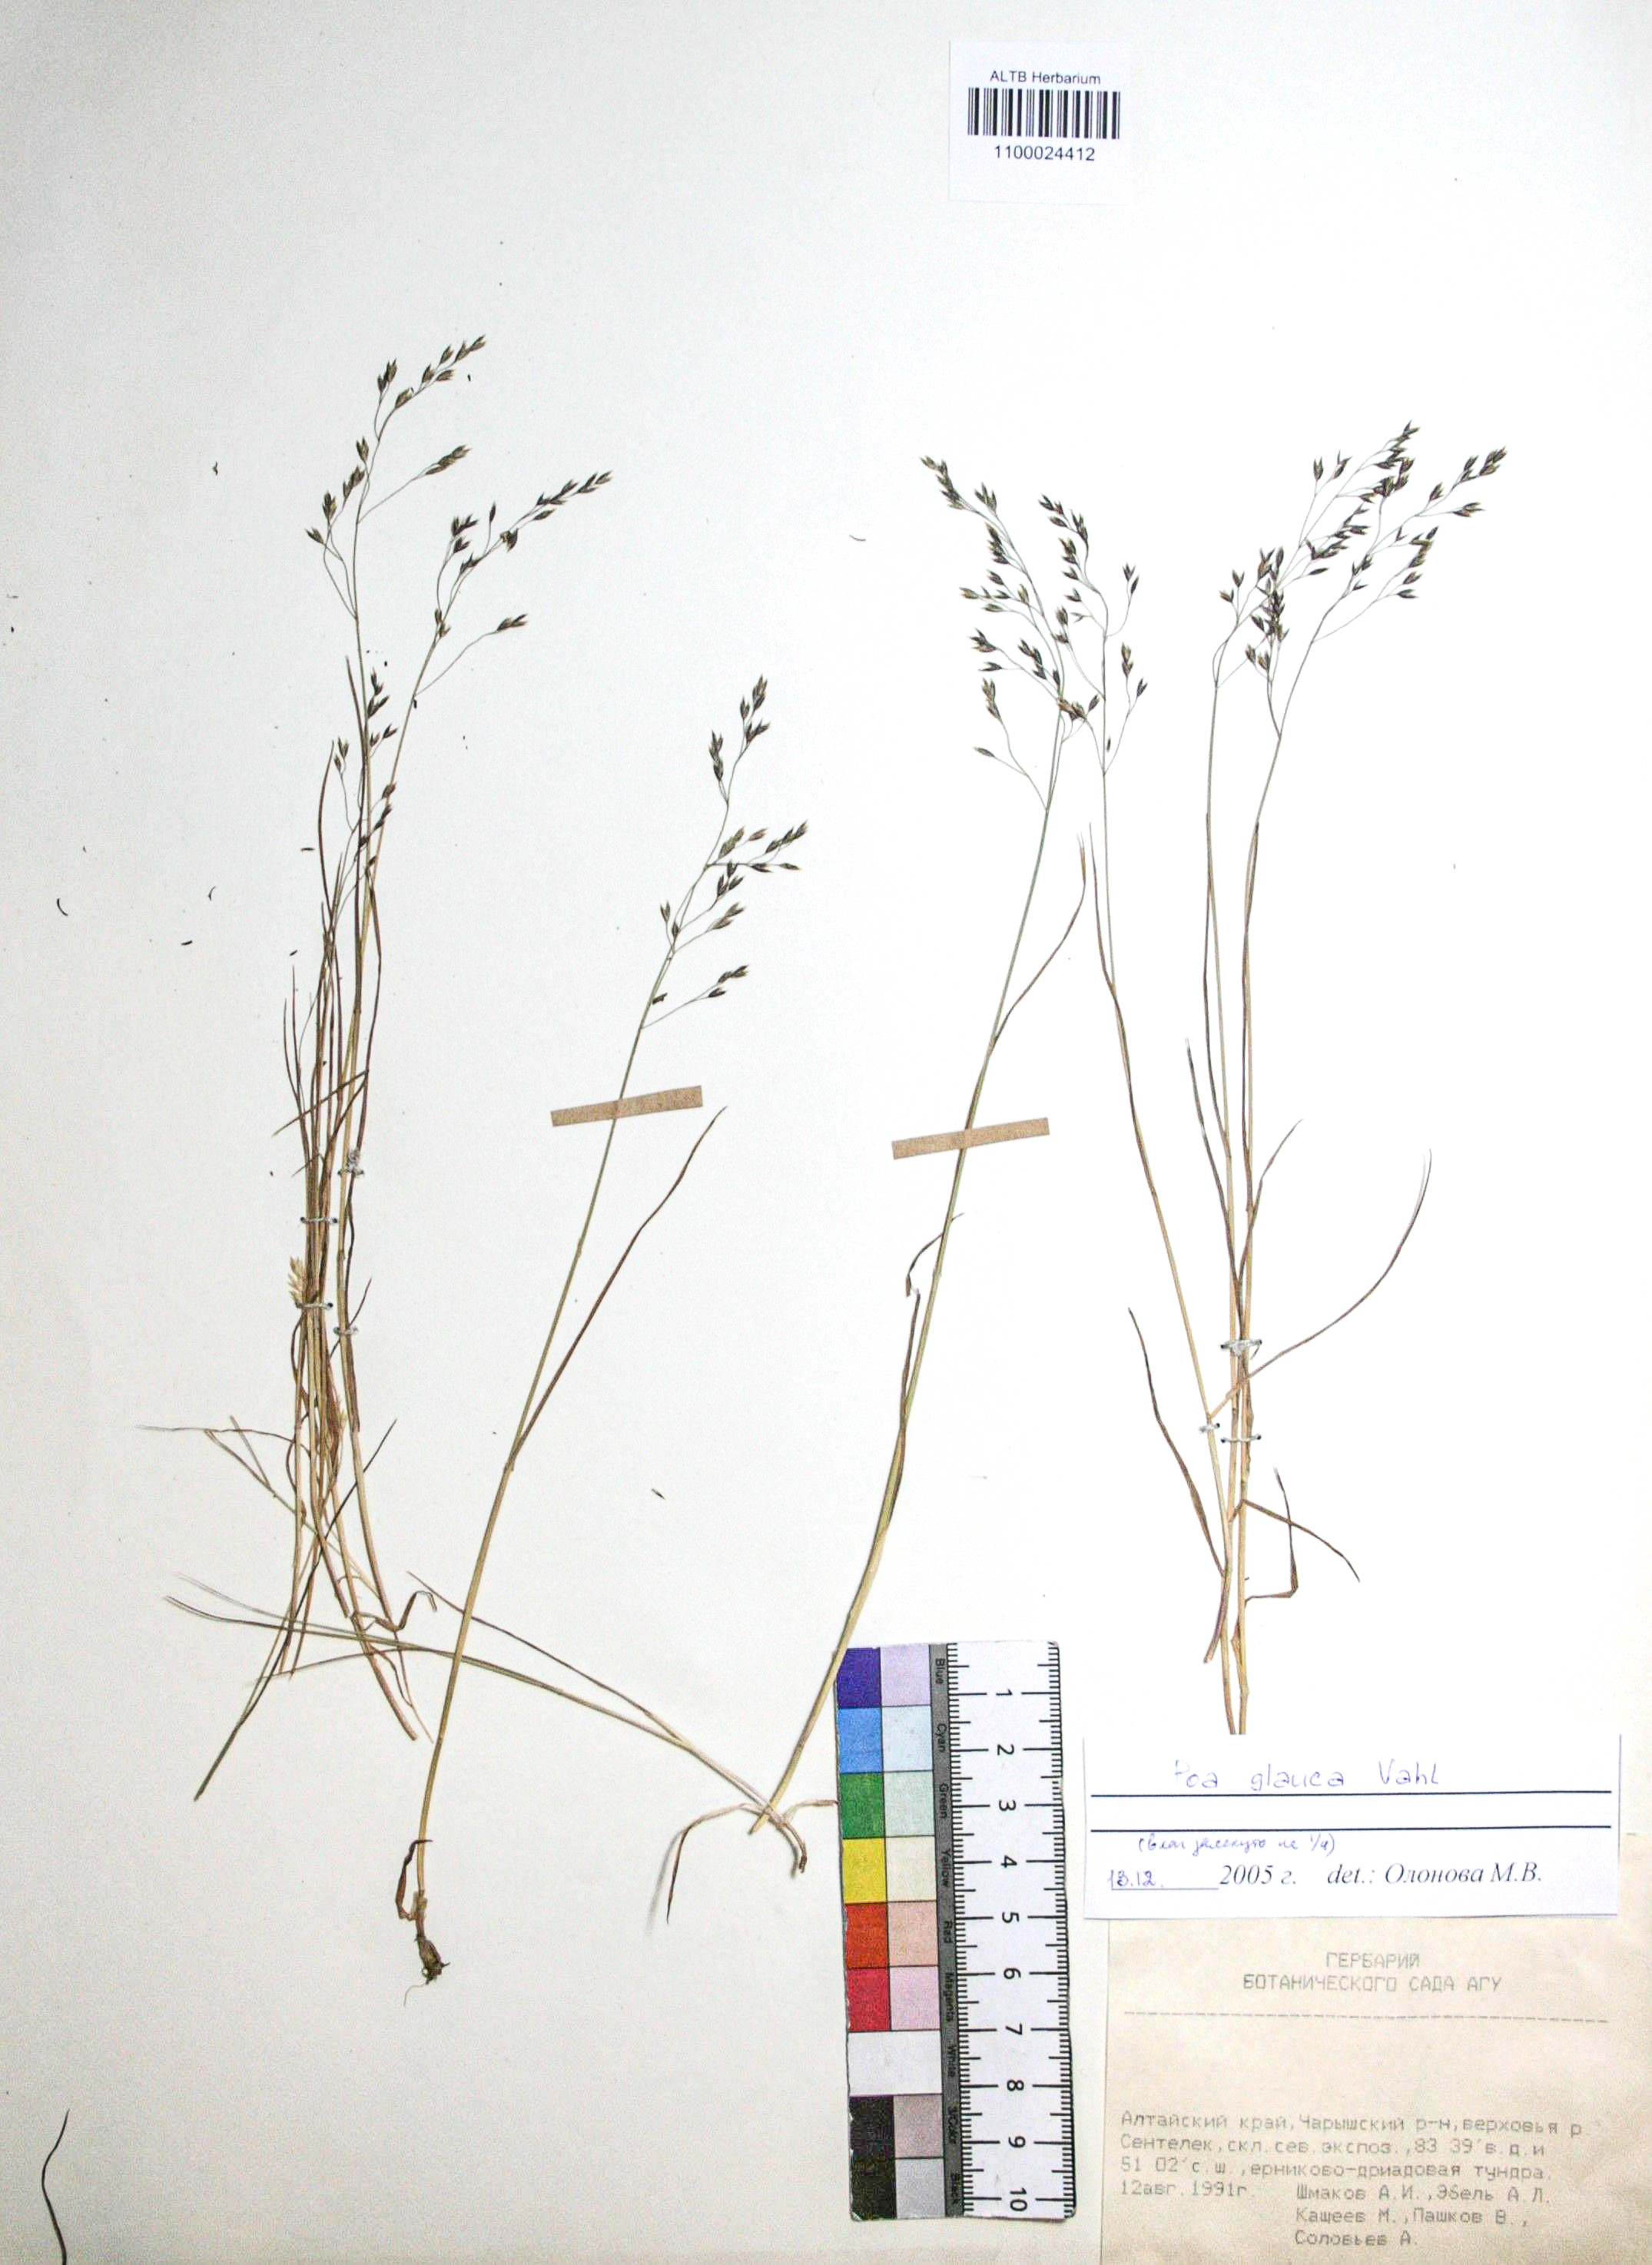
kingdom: Plantae
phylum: Tracheophyta
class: Liliopsida
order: Poales
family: Poaceae
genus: Poa
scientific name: Poa glauca
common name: Glaucous bluegrass
